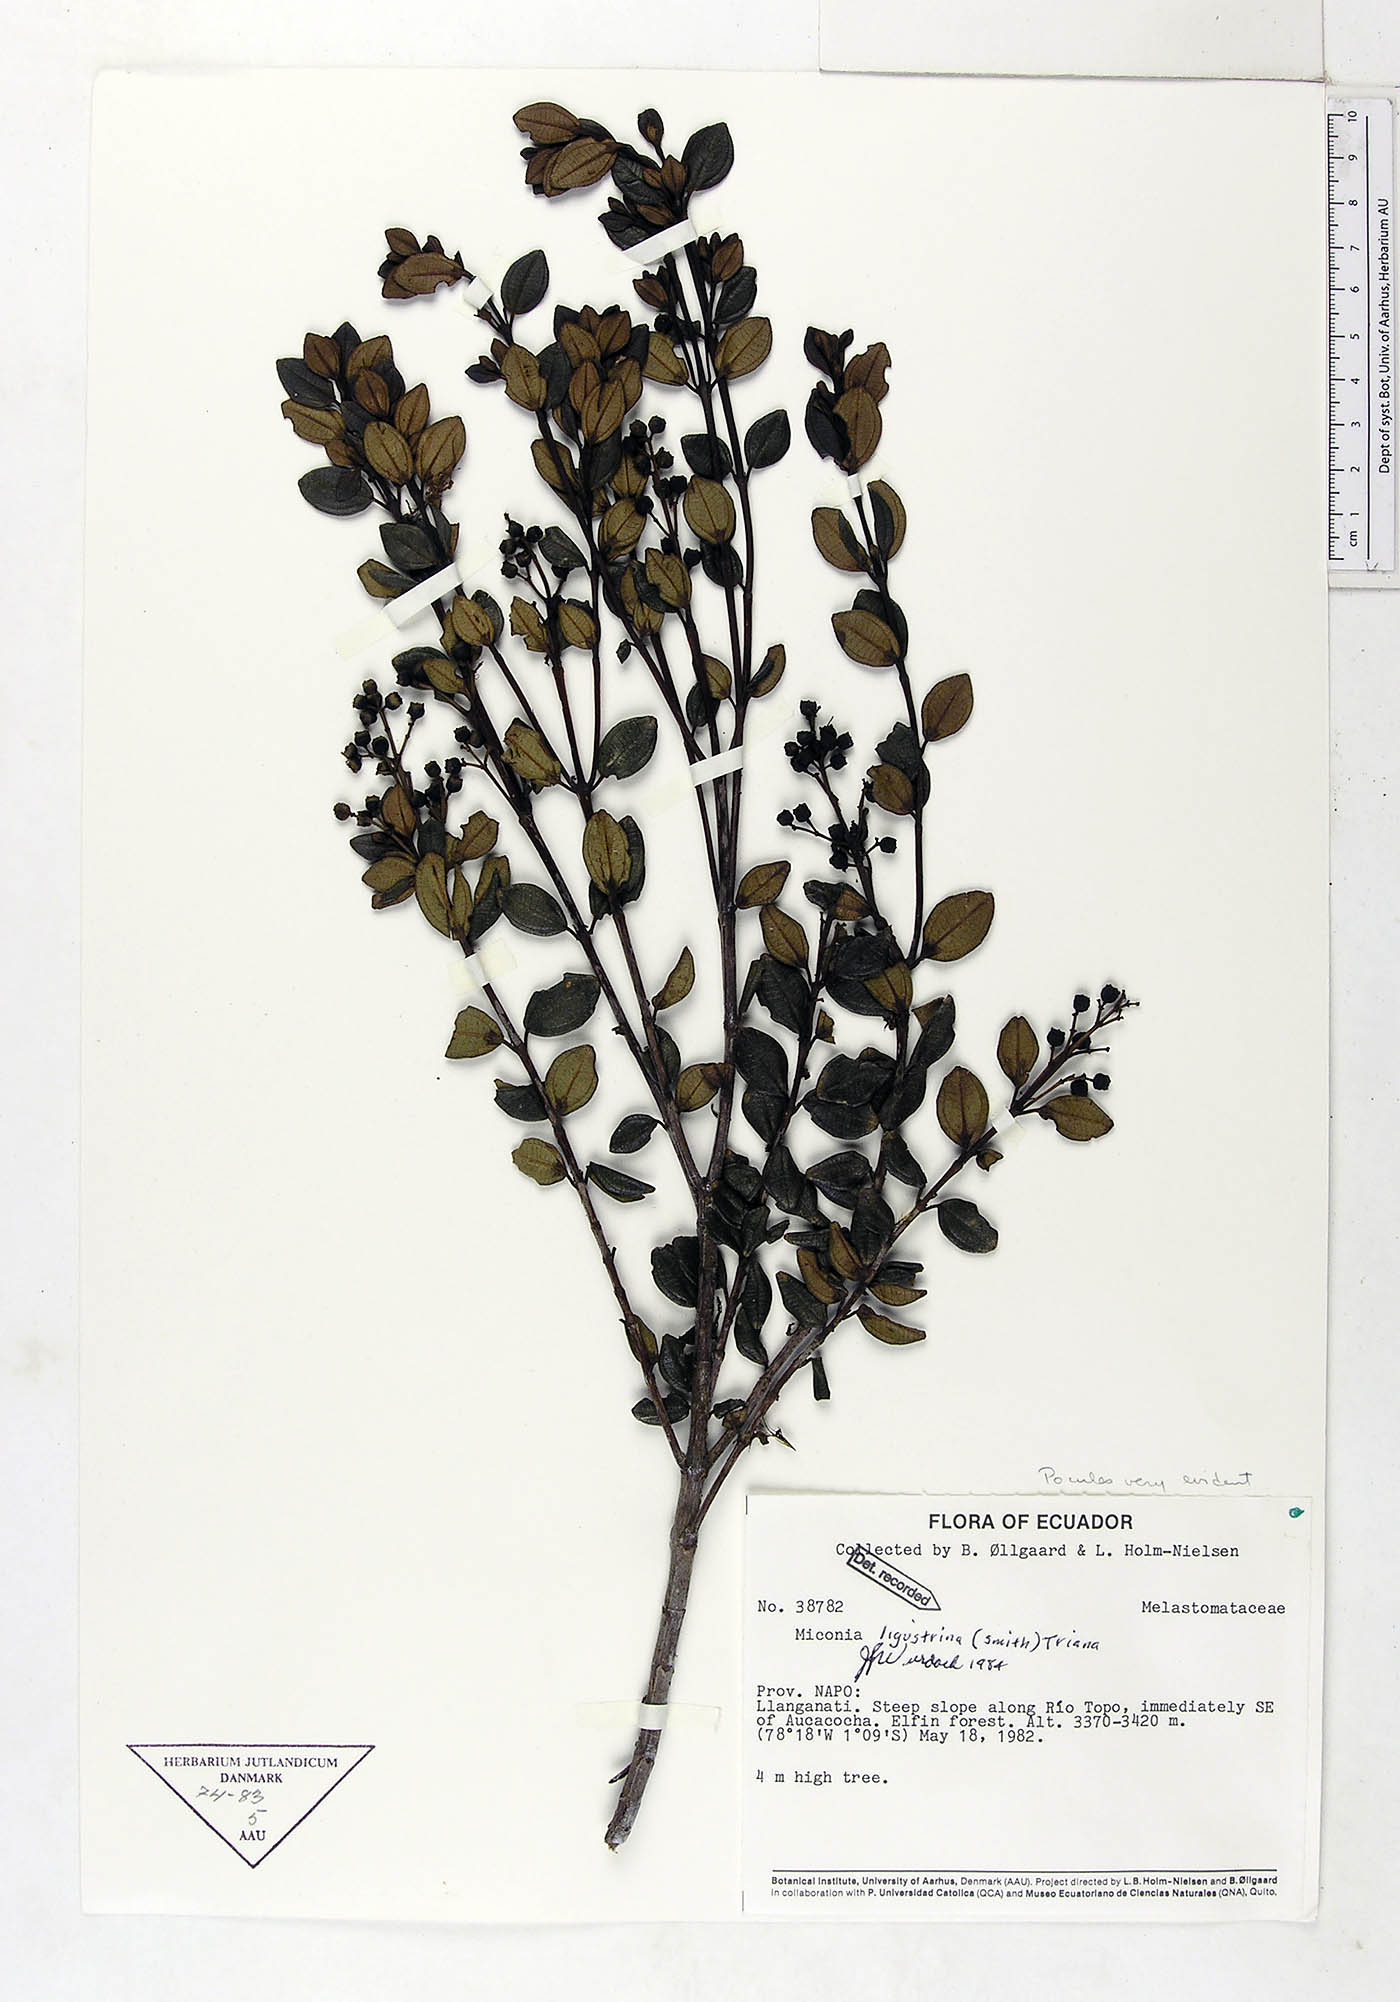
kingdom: Plantae
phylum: Tracheophyta
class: Magnoliopsida
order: Myrtales
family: Melastomataceae
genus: Miconia
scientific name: Miconia ligustrina
